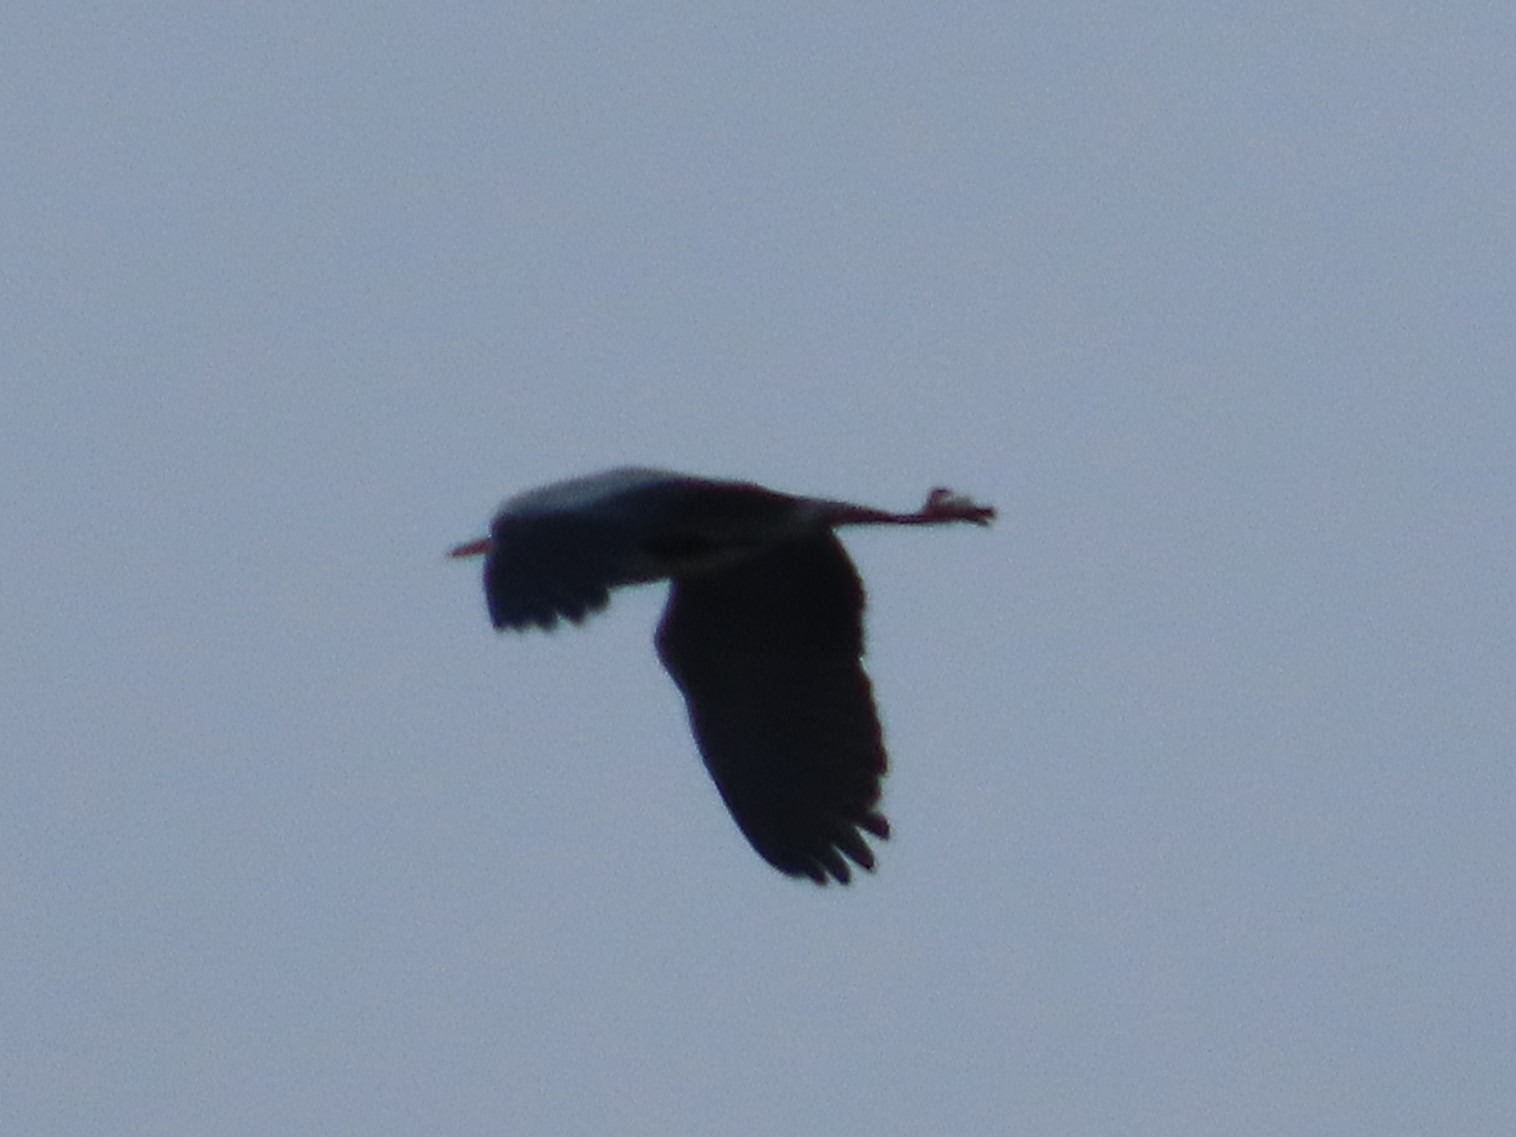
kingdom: Animalia
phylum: Chordata
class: Aves
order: Pelecaniformes
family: Ardeidae
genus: Ardea
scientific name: Ardea cinerea
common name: Fiskehejre
